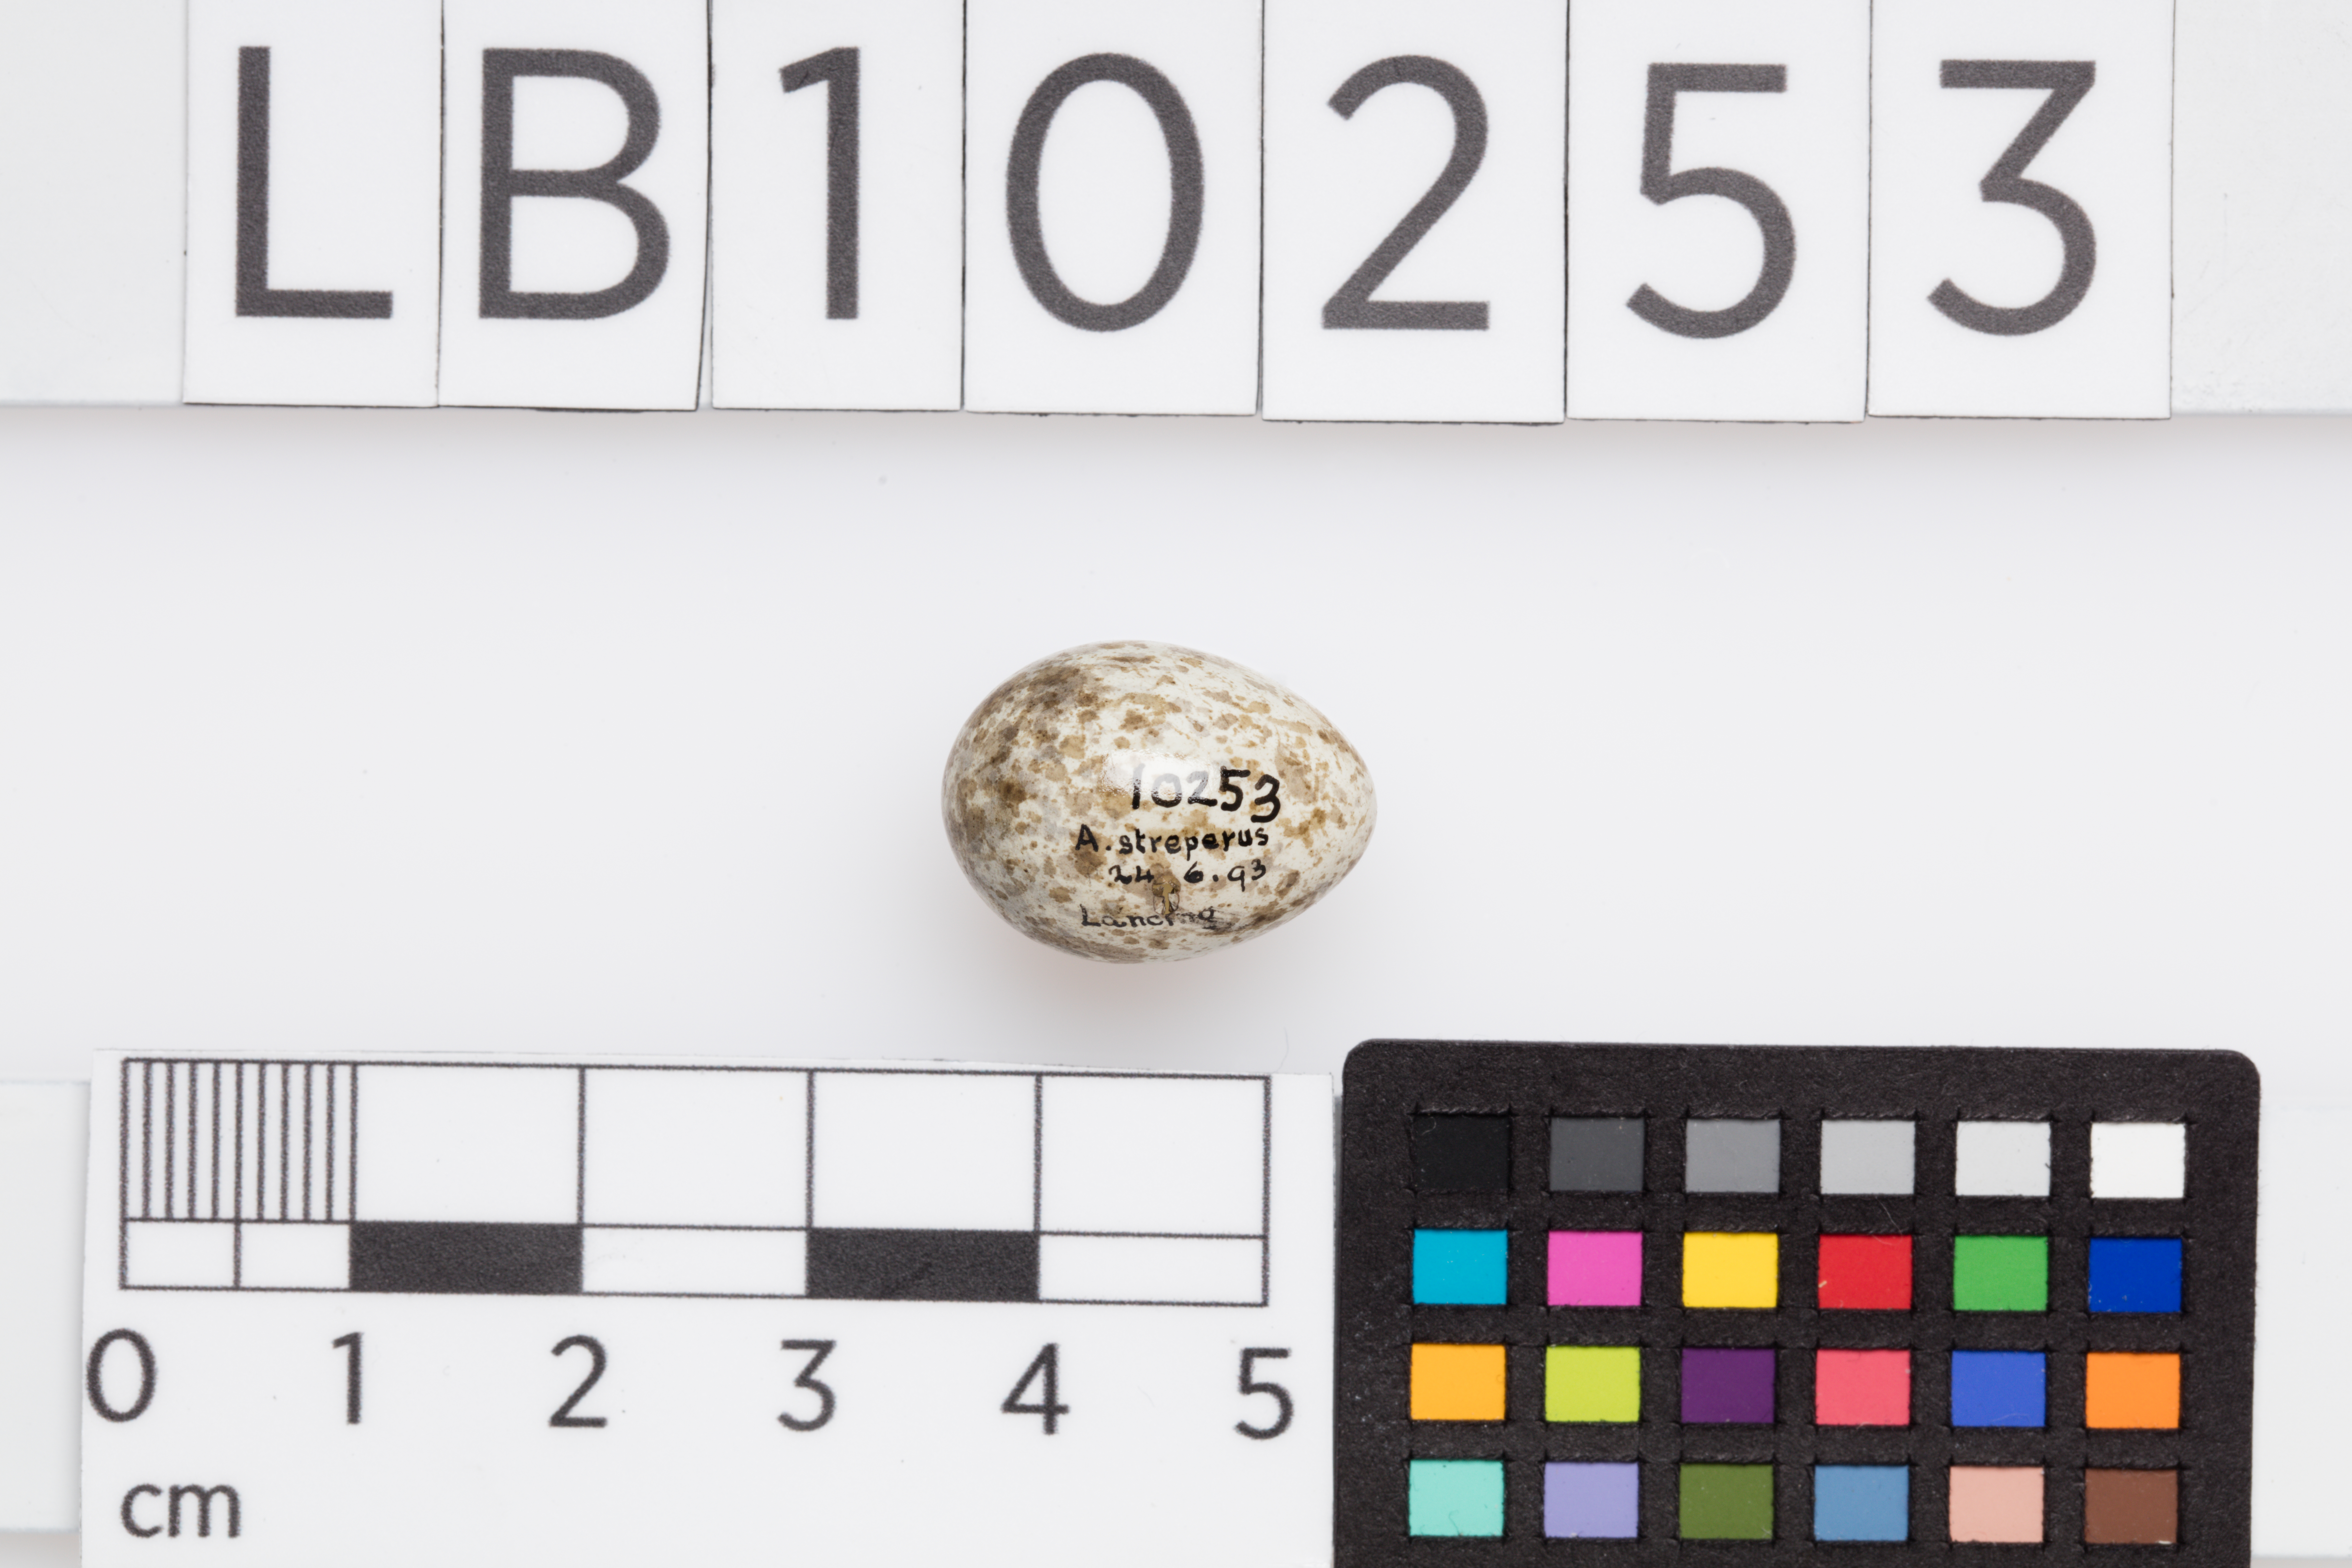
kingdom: Animalia
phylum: Chordata
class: Aves
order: Passeriformes
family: Acrocephalidae
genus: Acrocephalus
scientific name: Acrocephalus scirpaceus
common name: Eurasian reed warbler
